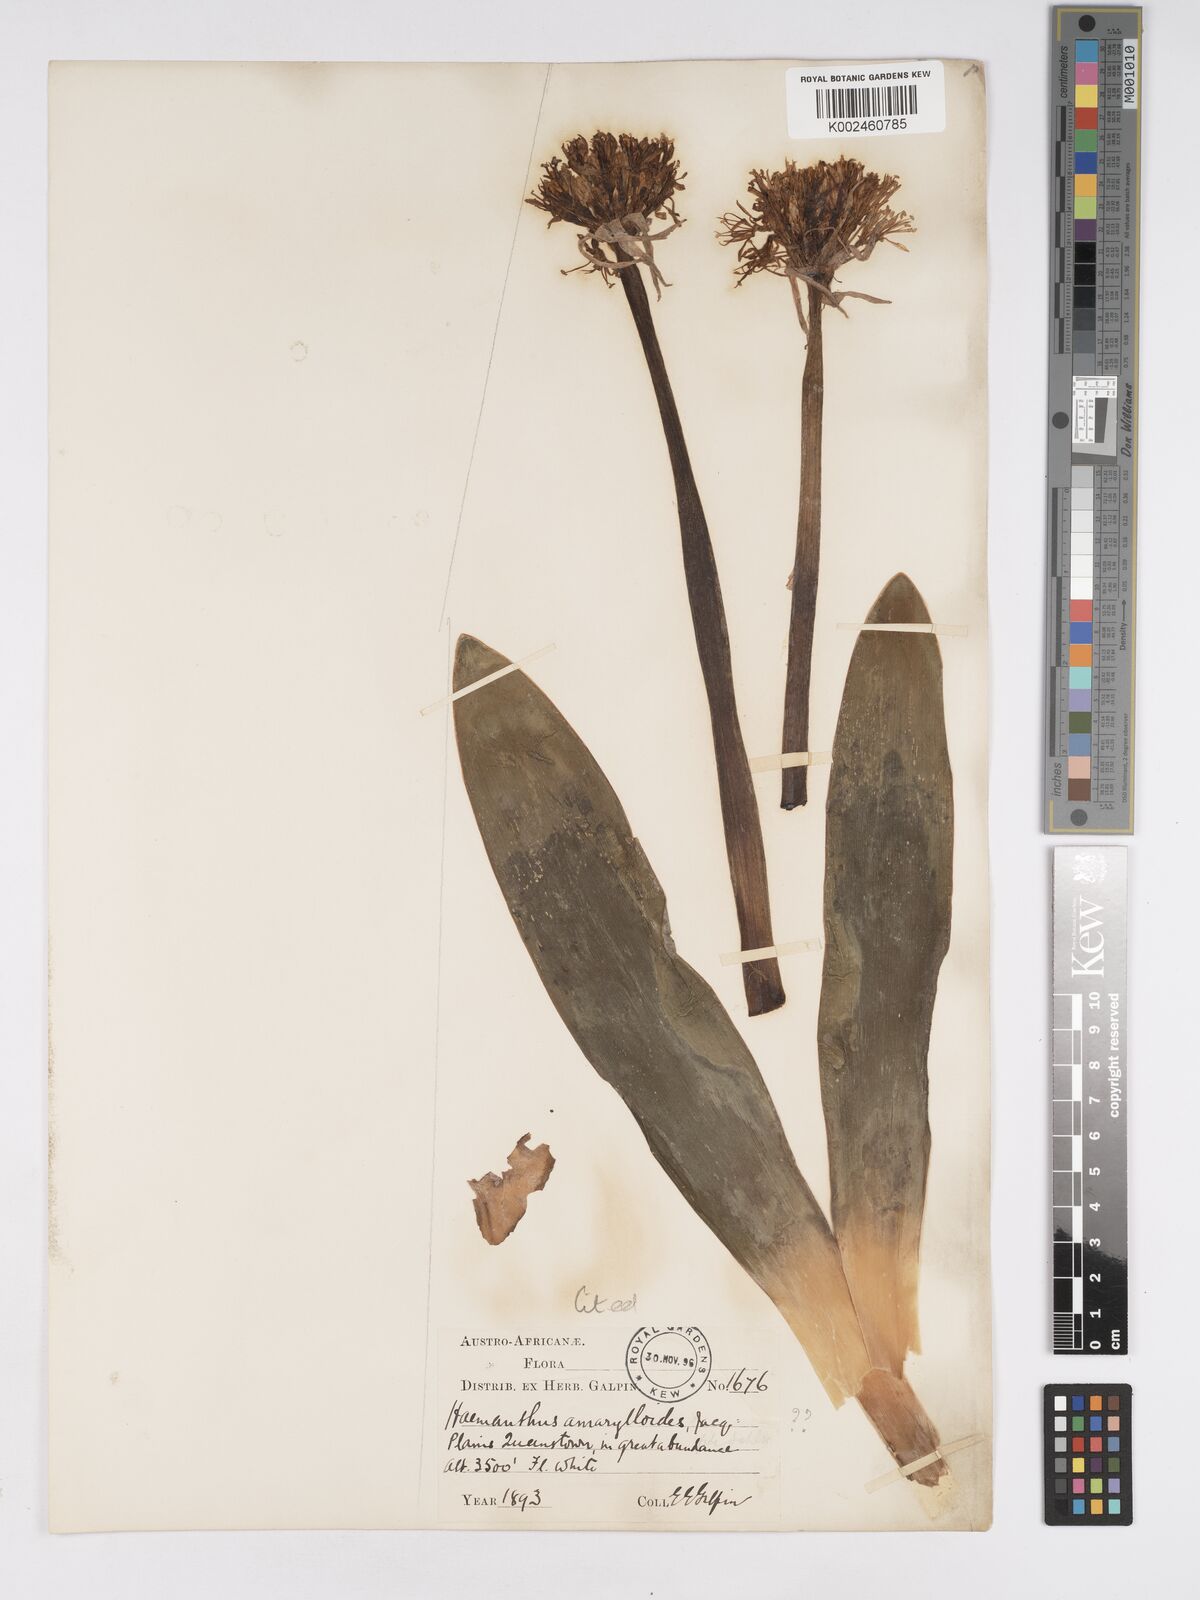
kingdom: Plantae
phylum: Tracheophyta
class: Liliopsida
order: Asparagales
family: Amaryllidaceae
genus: Haemanthus
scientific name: Haemanthus montanus
